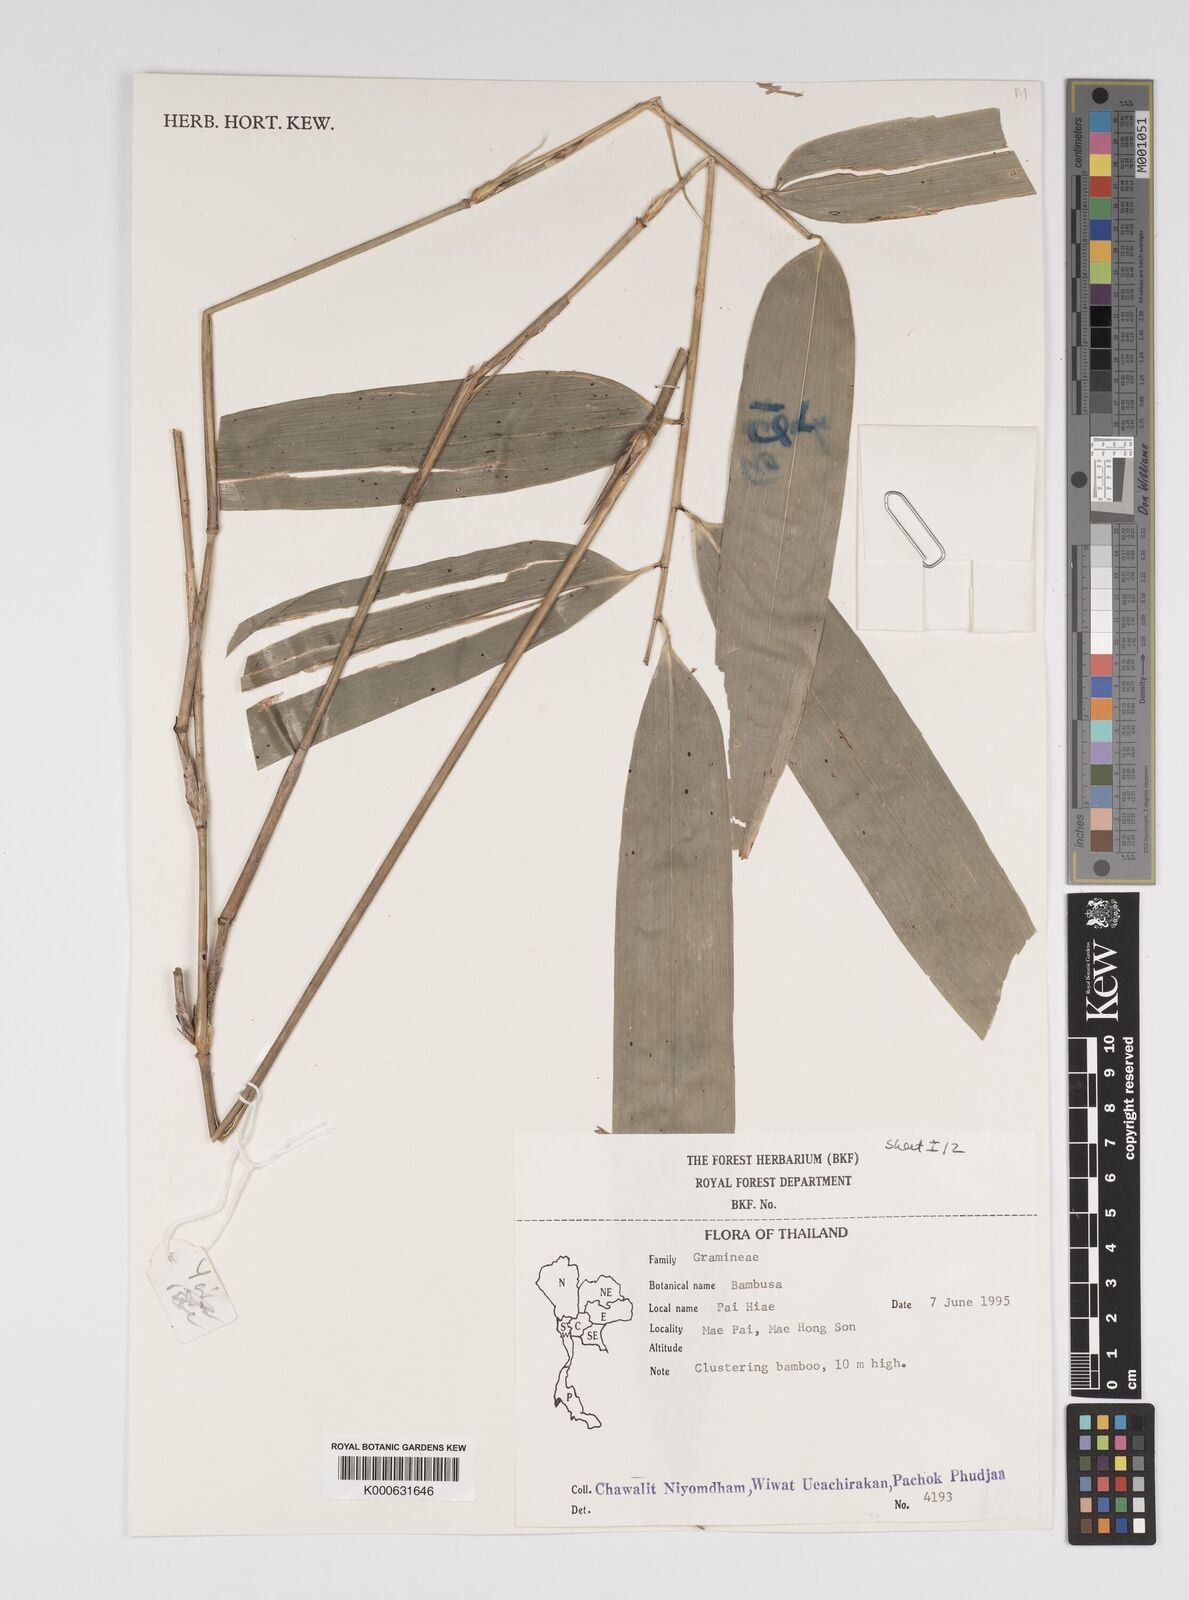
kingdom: Plantae
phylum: Tracheophyta
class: Liliopsida
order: Poales
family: Poaceae
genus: Bambusa
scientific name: Bambusa
